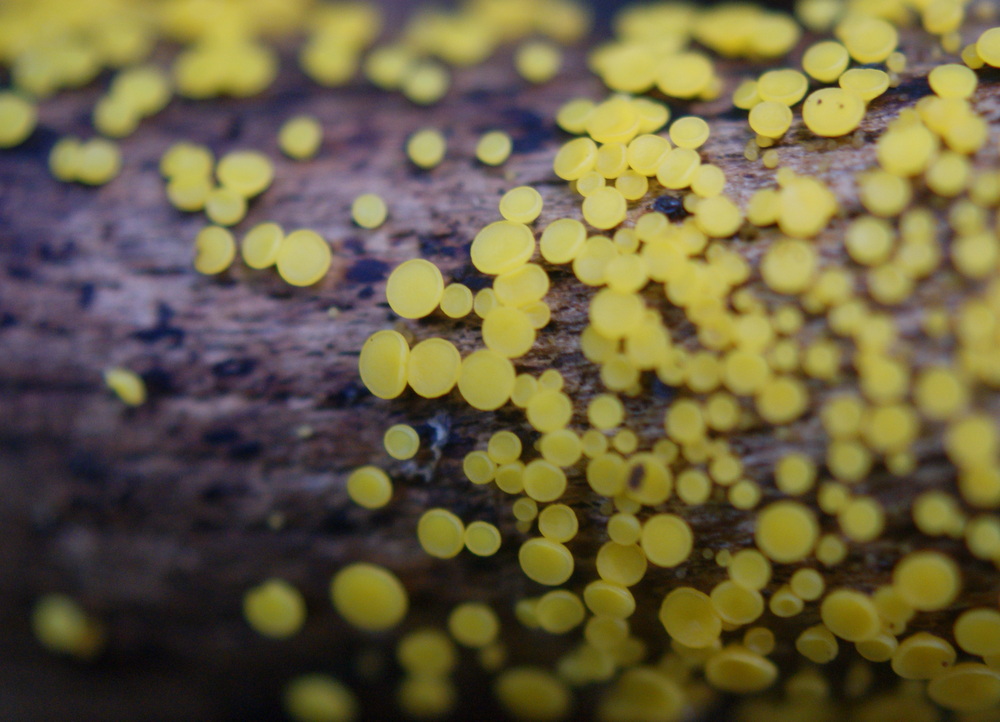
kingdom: Fungi
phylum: Ascomycota
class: Leotiomycetes
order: Helotiales
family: Pezizellaceae
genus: Calycina
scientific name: Calycina citrina
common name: almindelig gulskive
